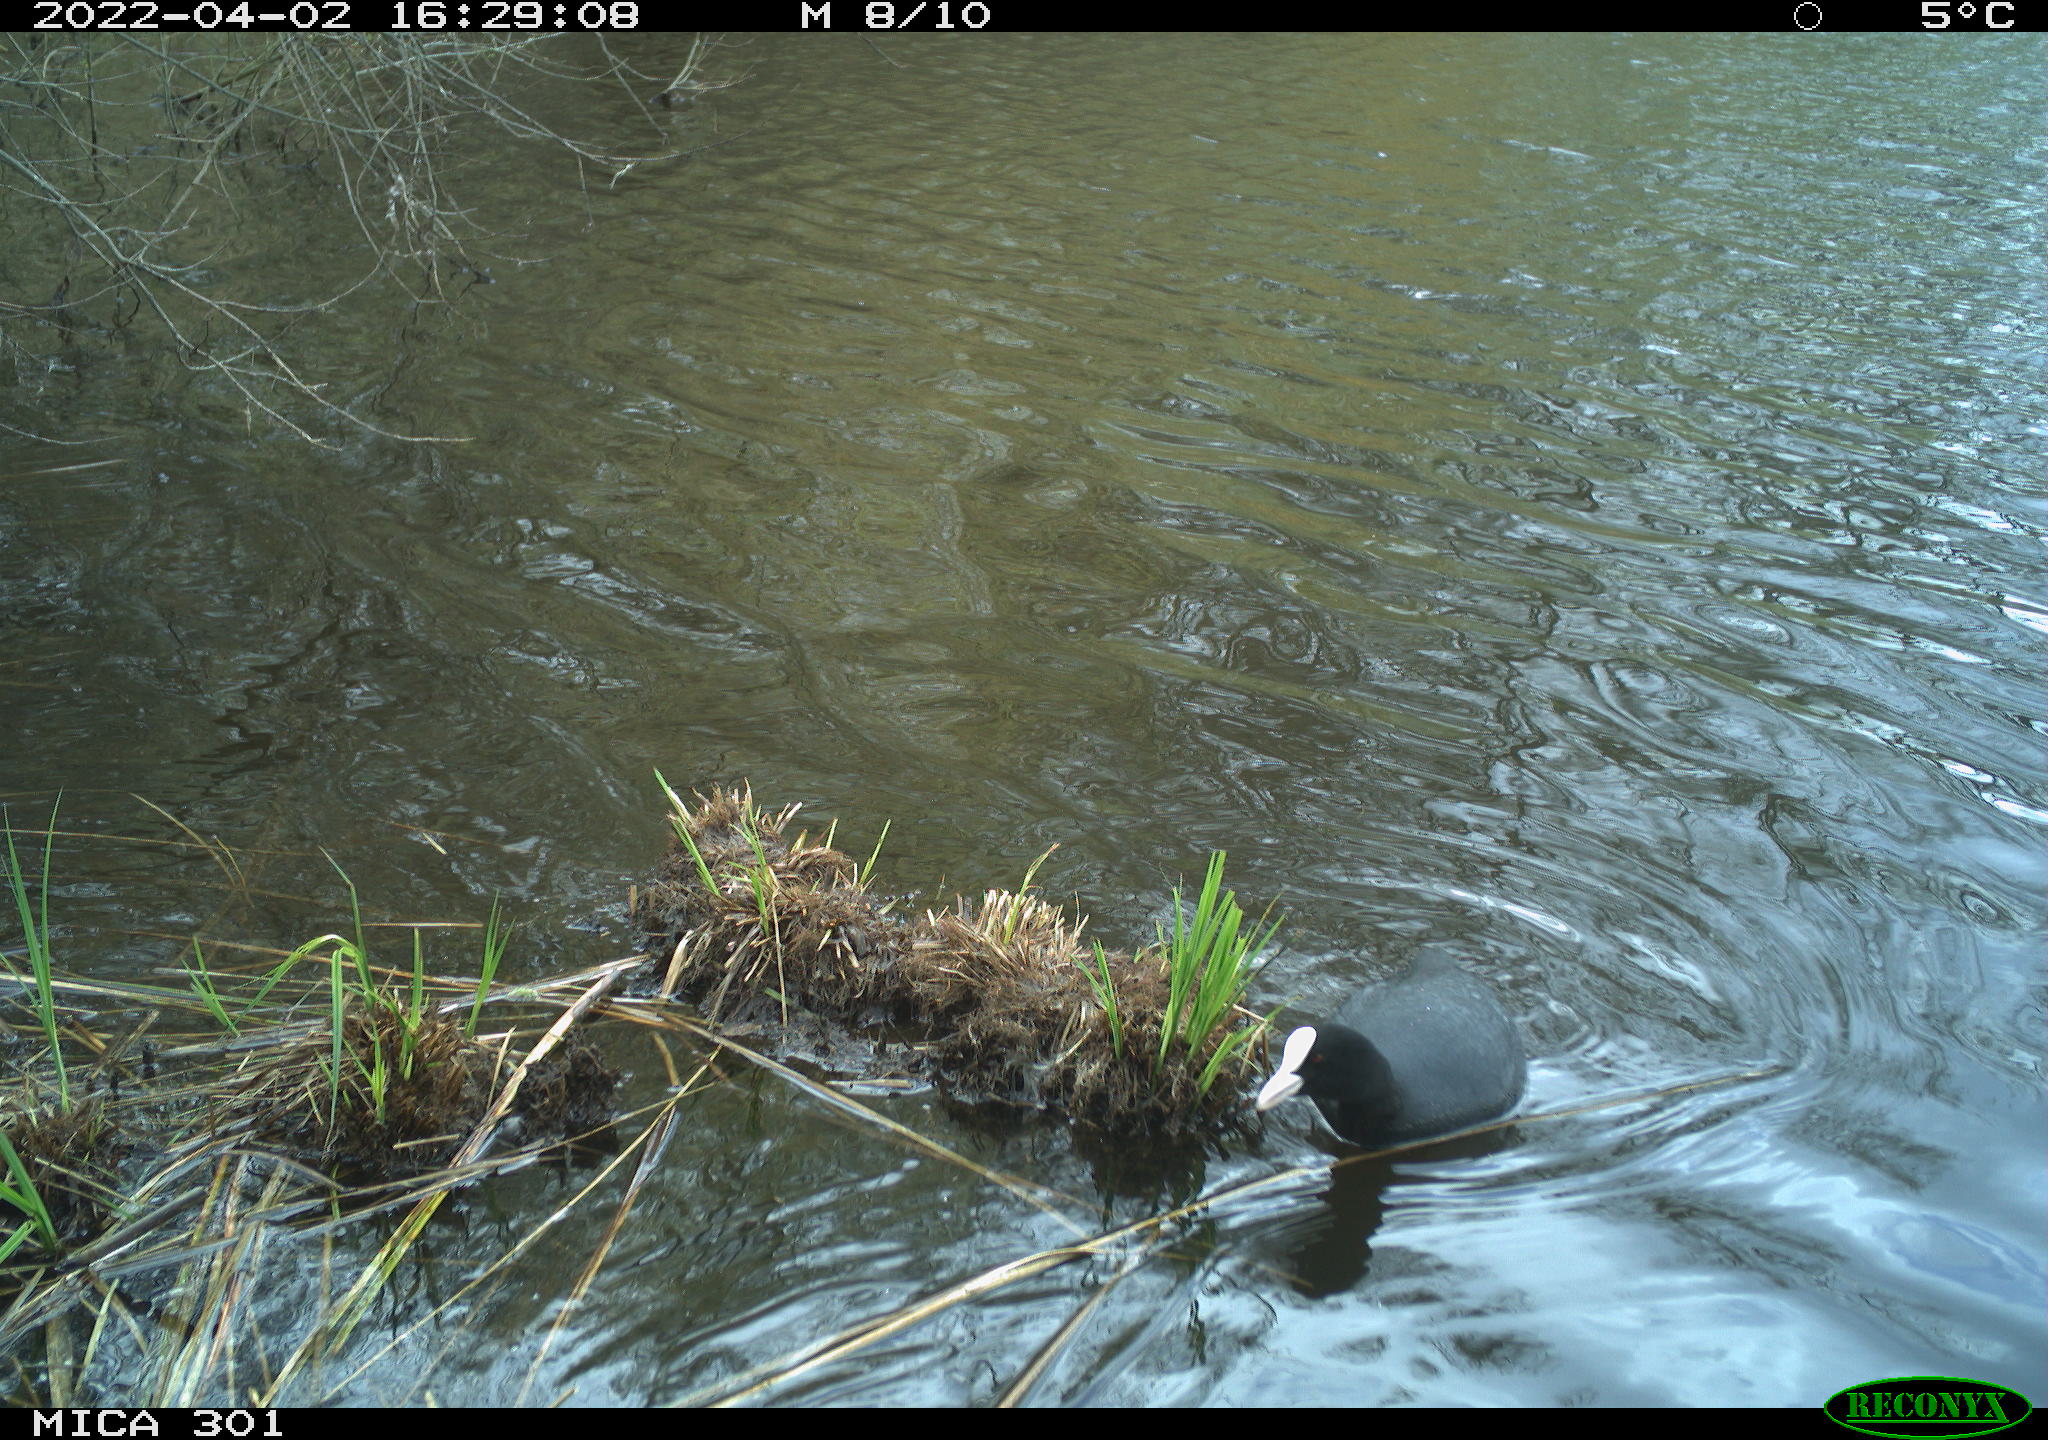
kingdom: Animalia
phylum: Chordata
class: Aves
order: Gruiformes
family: Rallidae
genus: Fulica
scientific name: Fulica atra
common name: Eurasian coot
